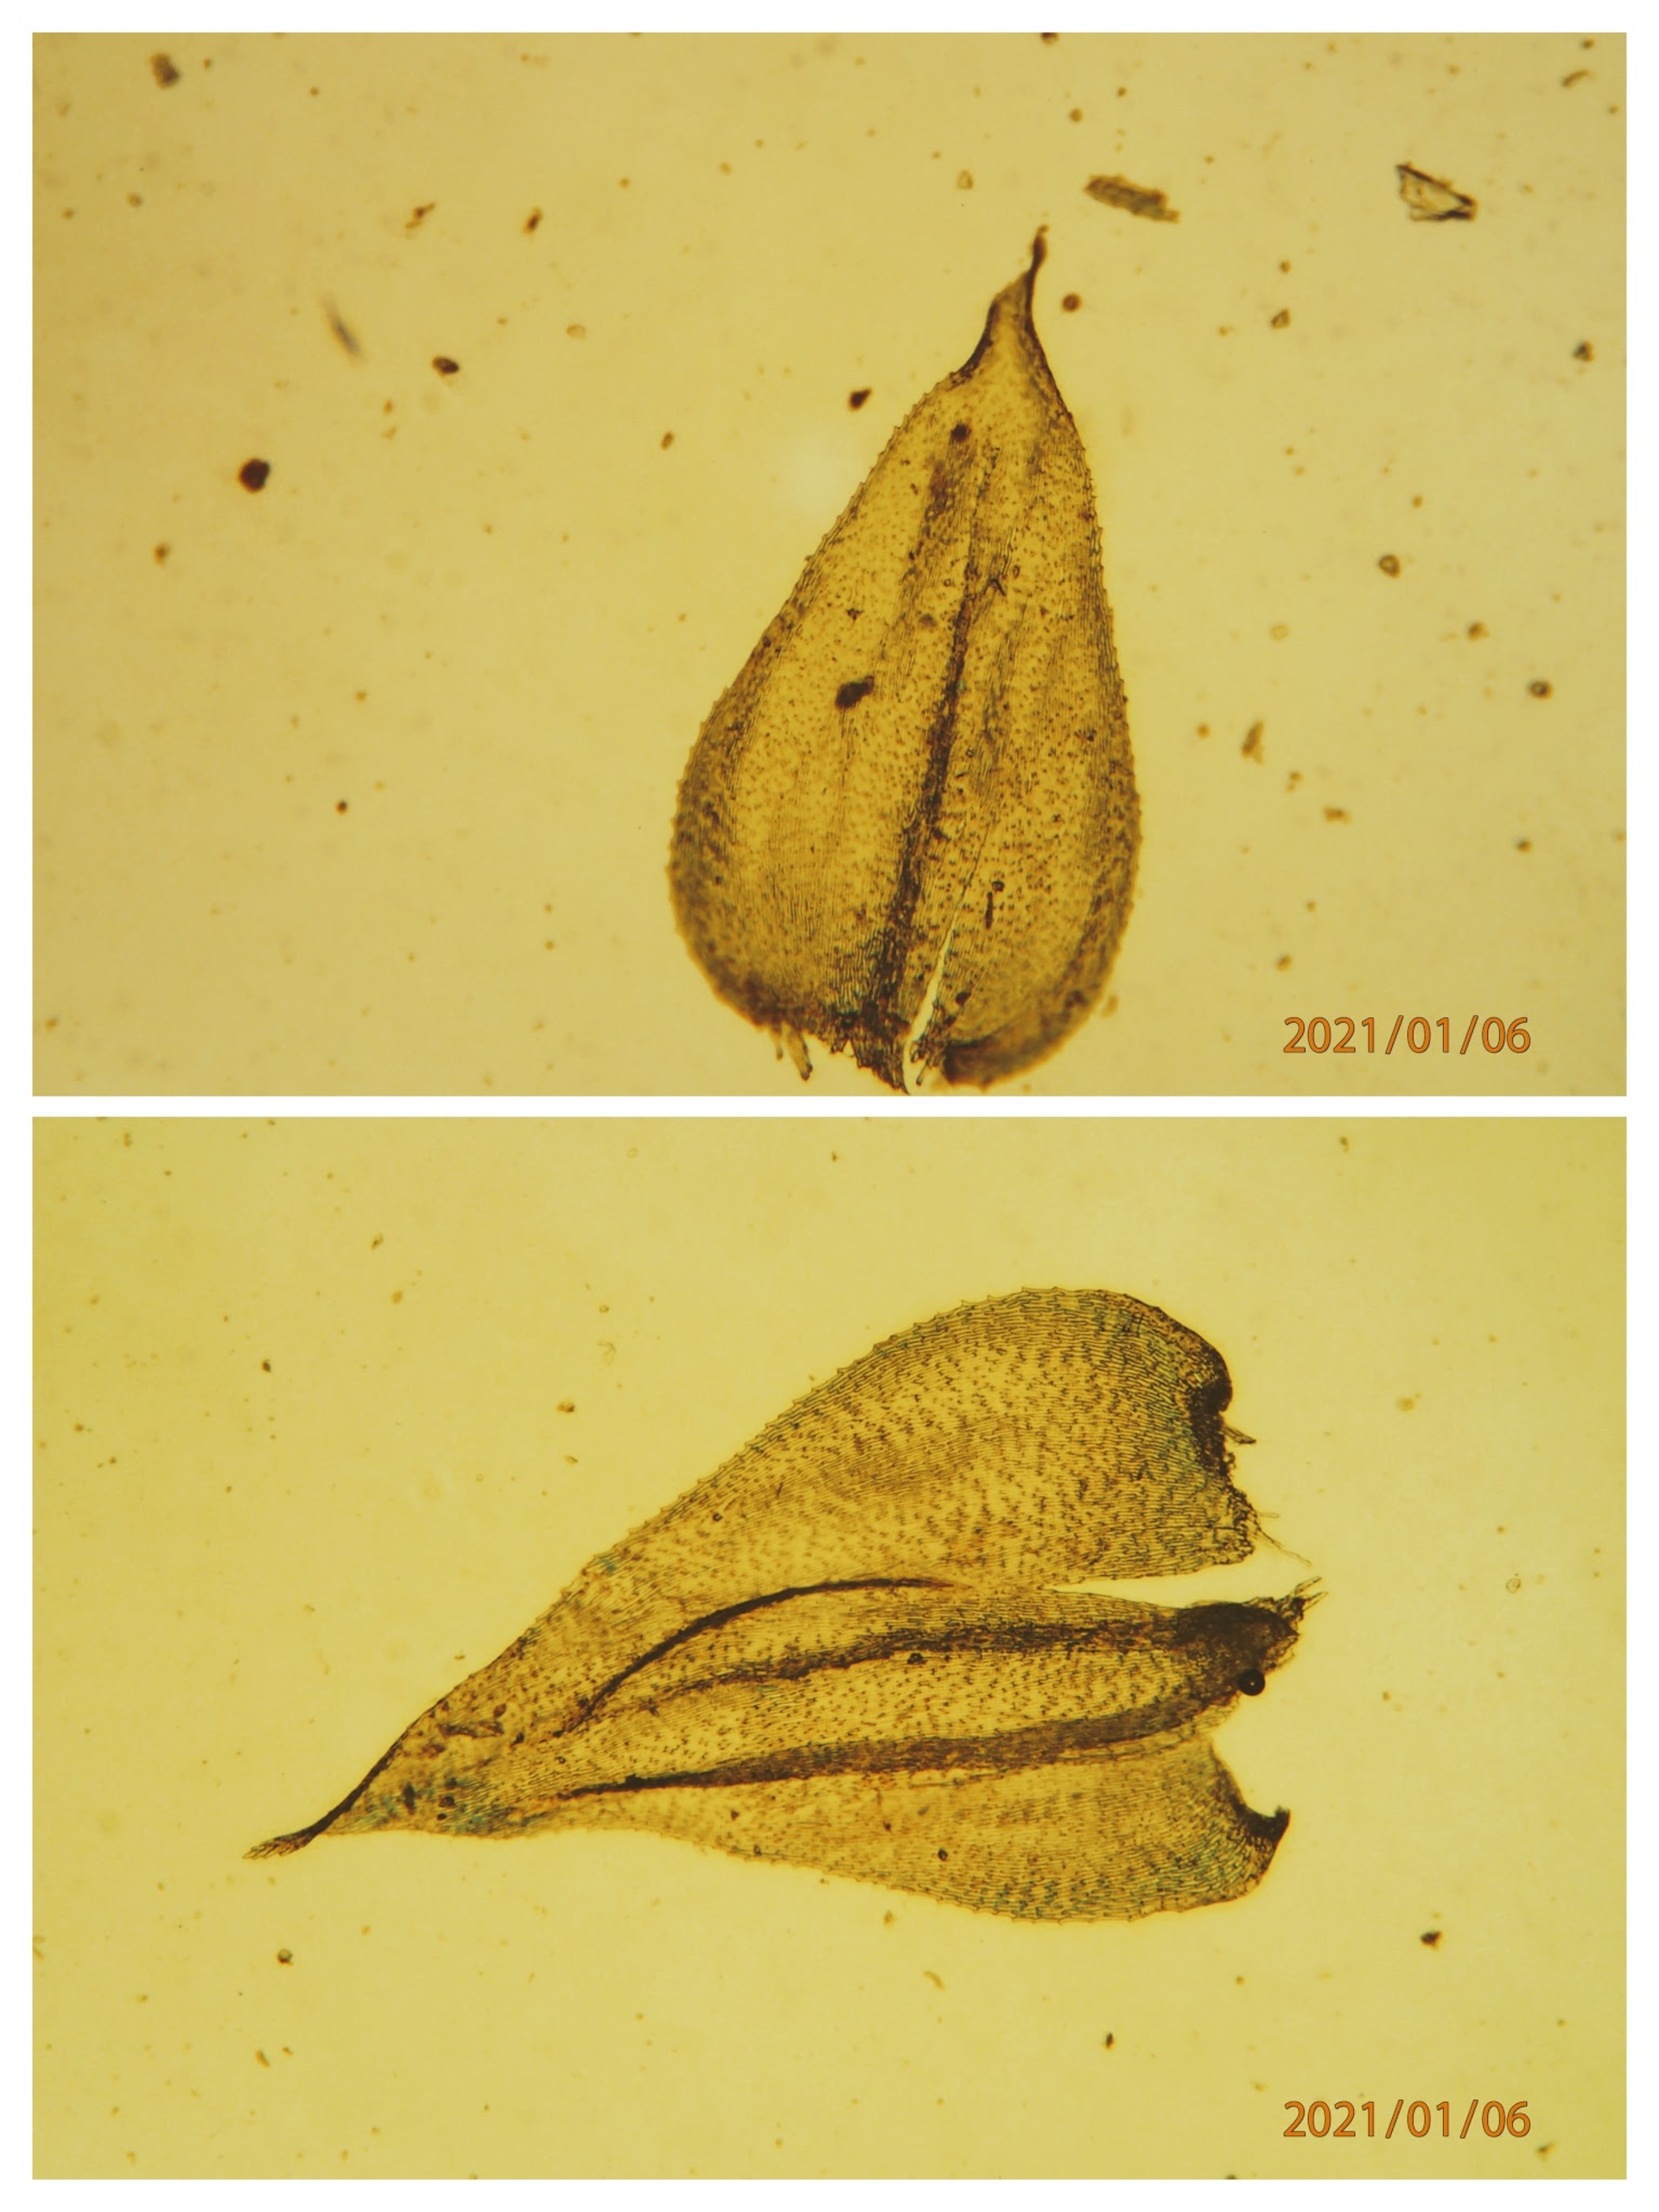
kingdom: Plantae
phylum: Bryophyta
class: Bryopsida
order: Hypnales
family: Brachytheciaceae
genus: Oxyrrhynchium
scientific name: Oxyrrhynchium schleicheri
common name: Vredet vortetand
